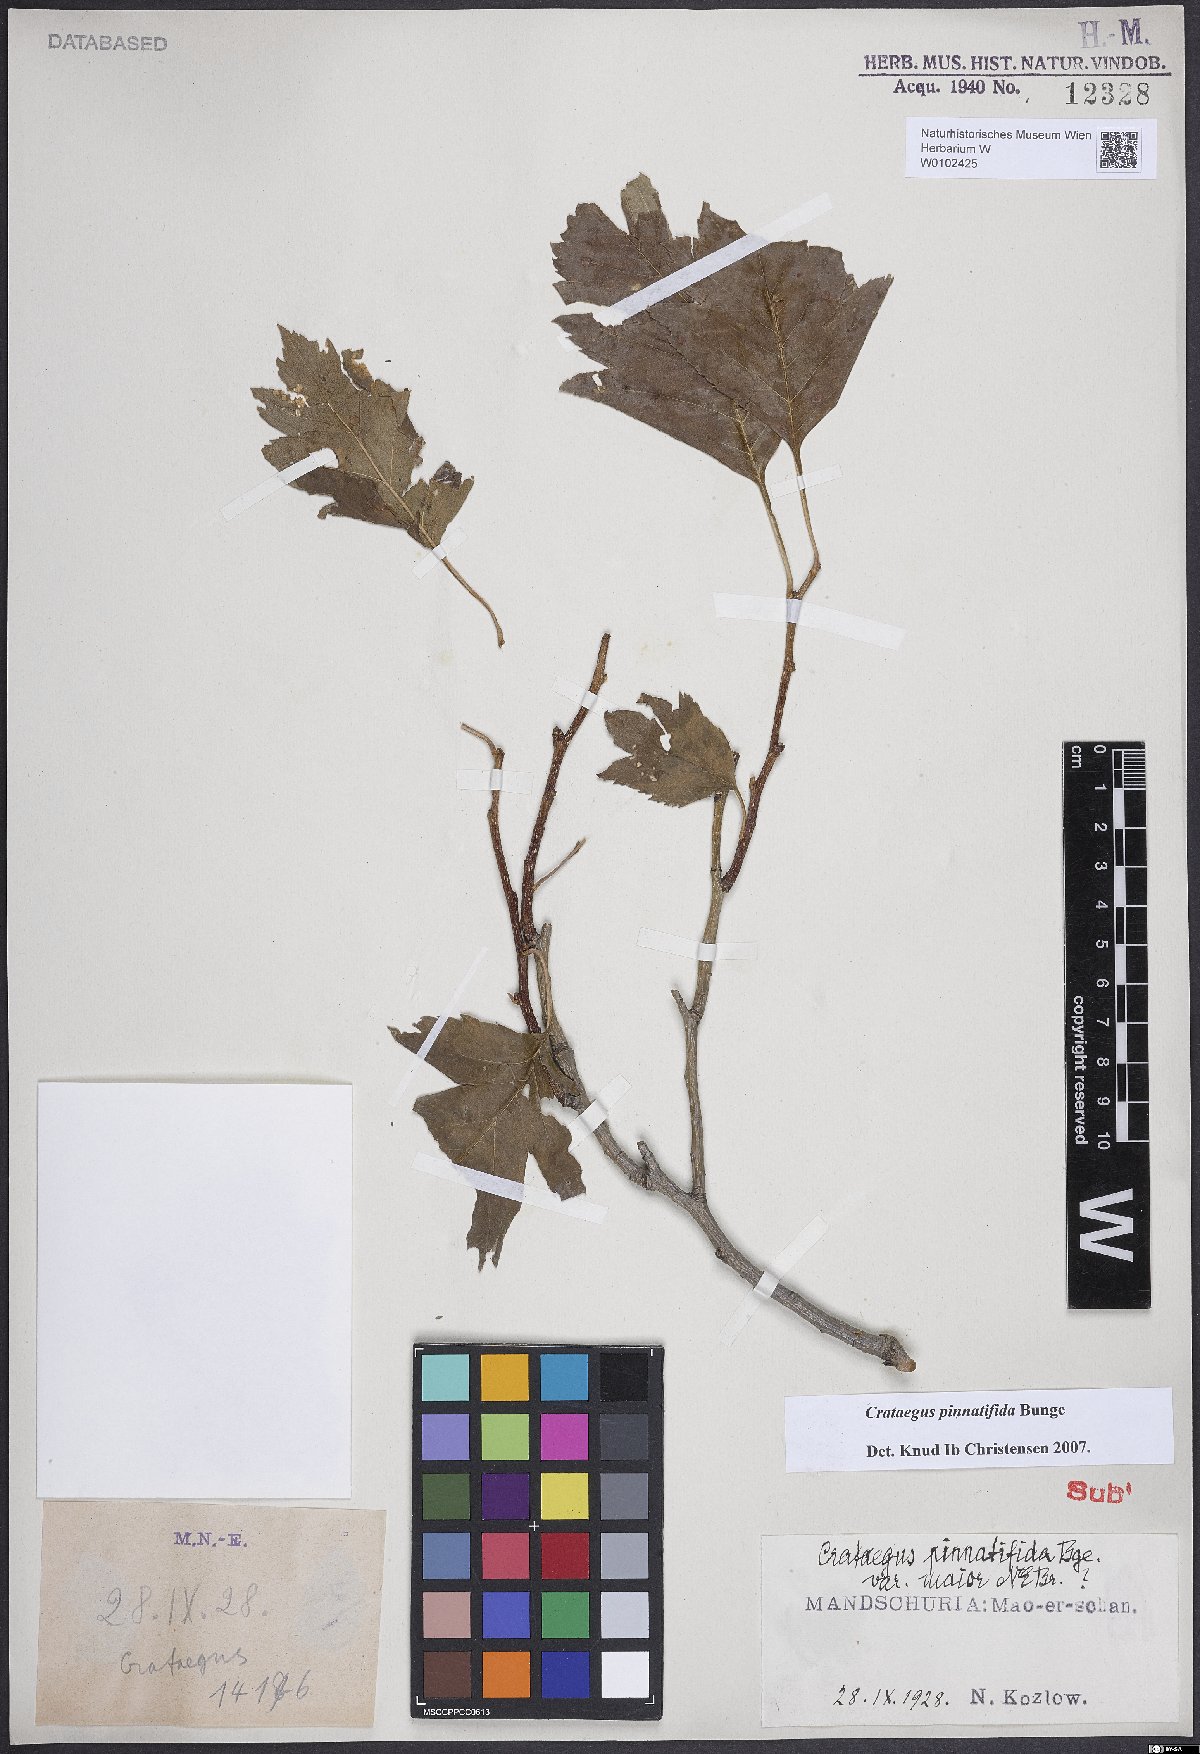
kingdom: Plantae
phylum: Tracheophyta
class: Magnoliopsida
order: Rosales
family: Rosaceae
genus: Crataegus
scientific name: Crataegus pinnatifida
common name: Chinese haw
